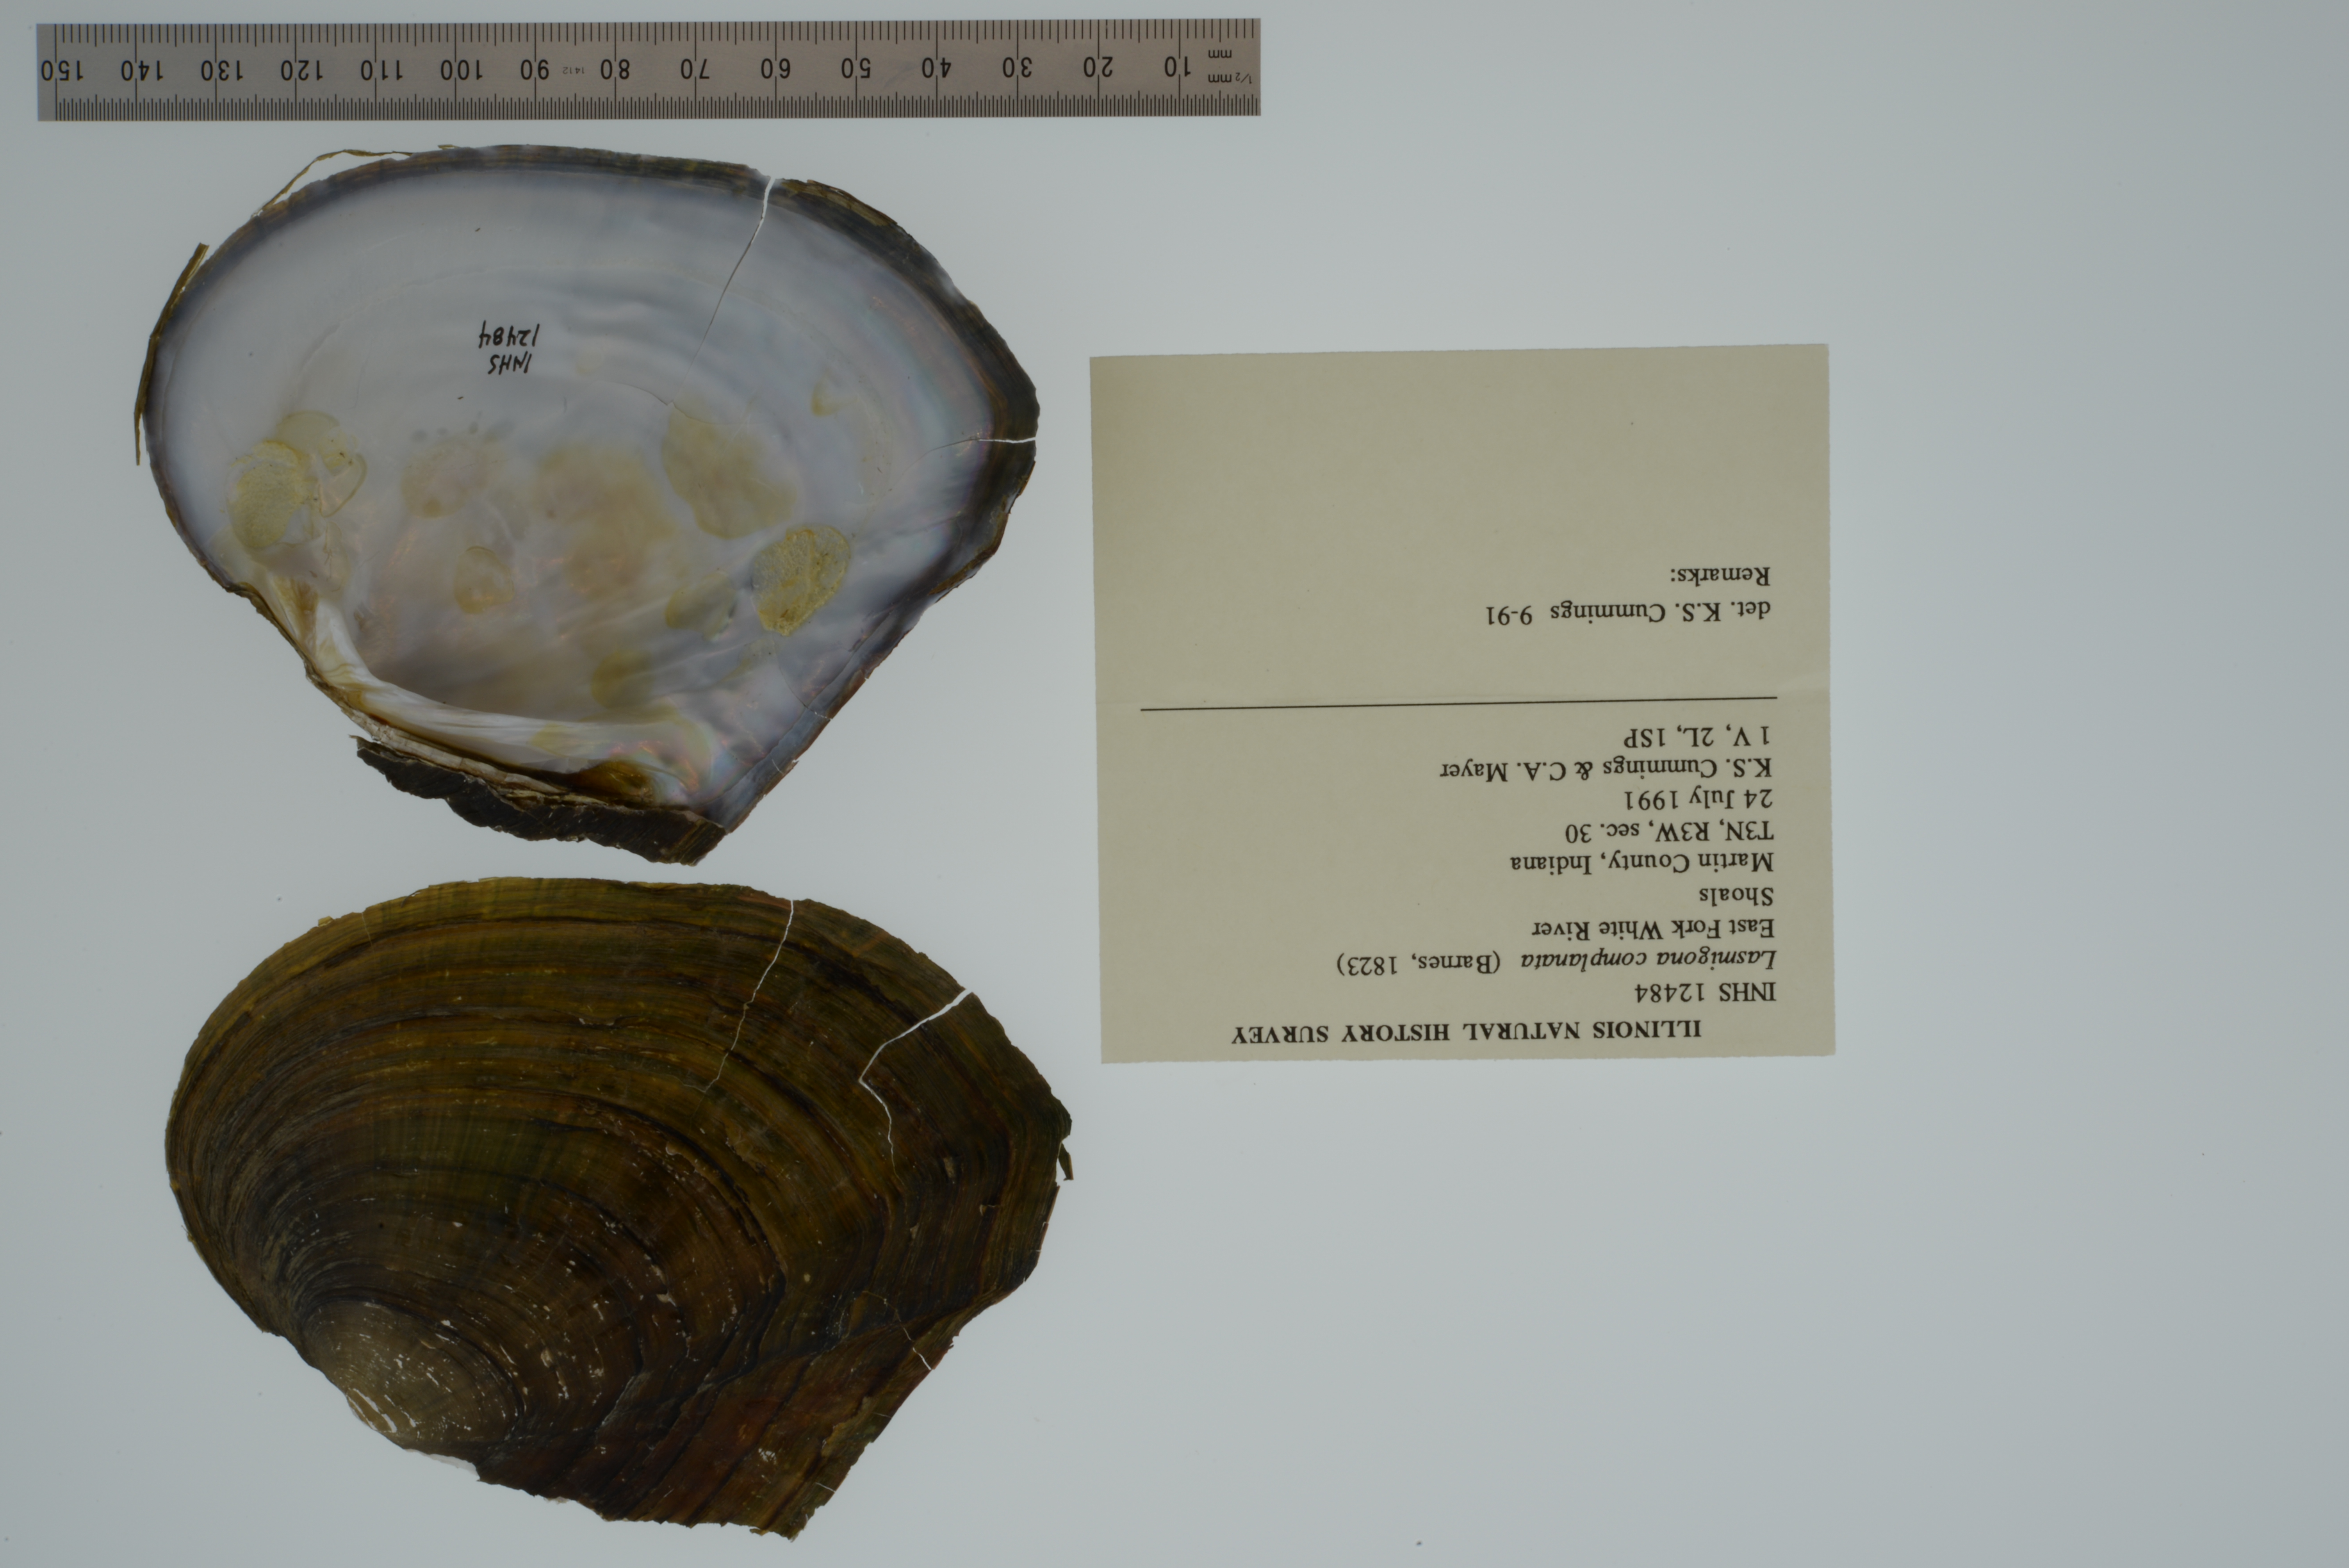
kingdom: Animalia
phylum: Mollusca
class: Bivalvia
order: Unionida
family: Unionidae
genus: Lasmigona
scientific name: Lasmigona complanata
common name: White heelsplitter
